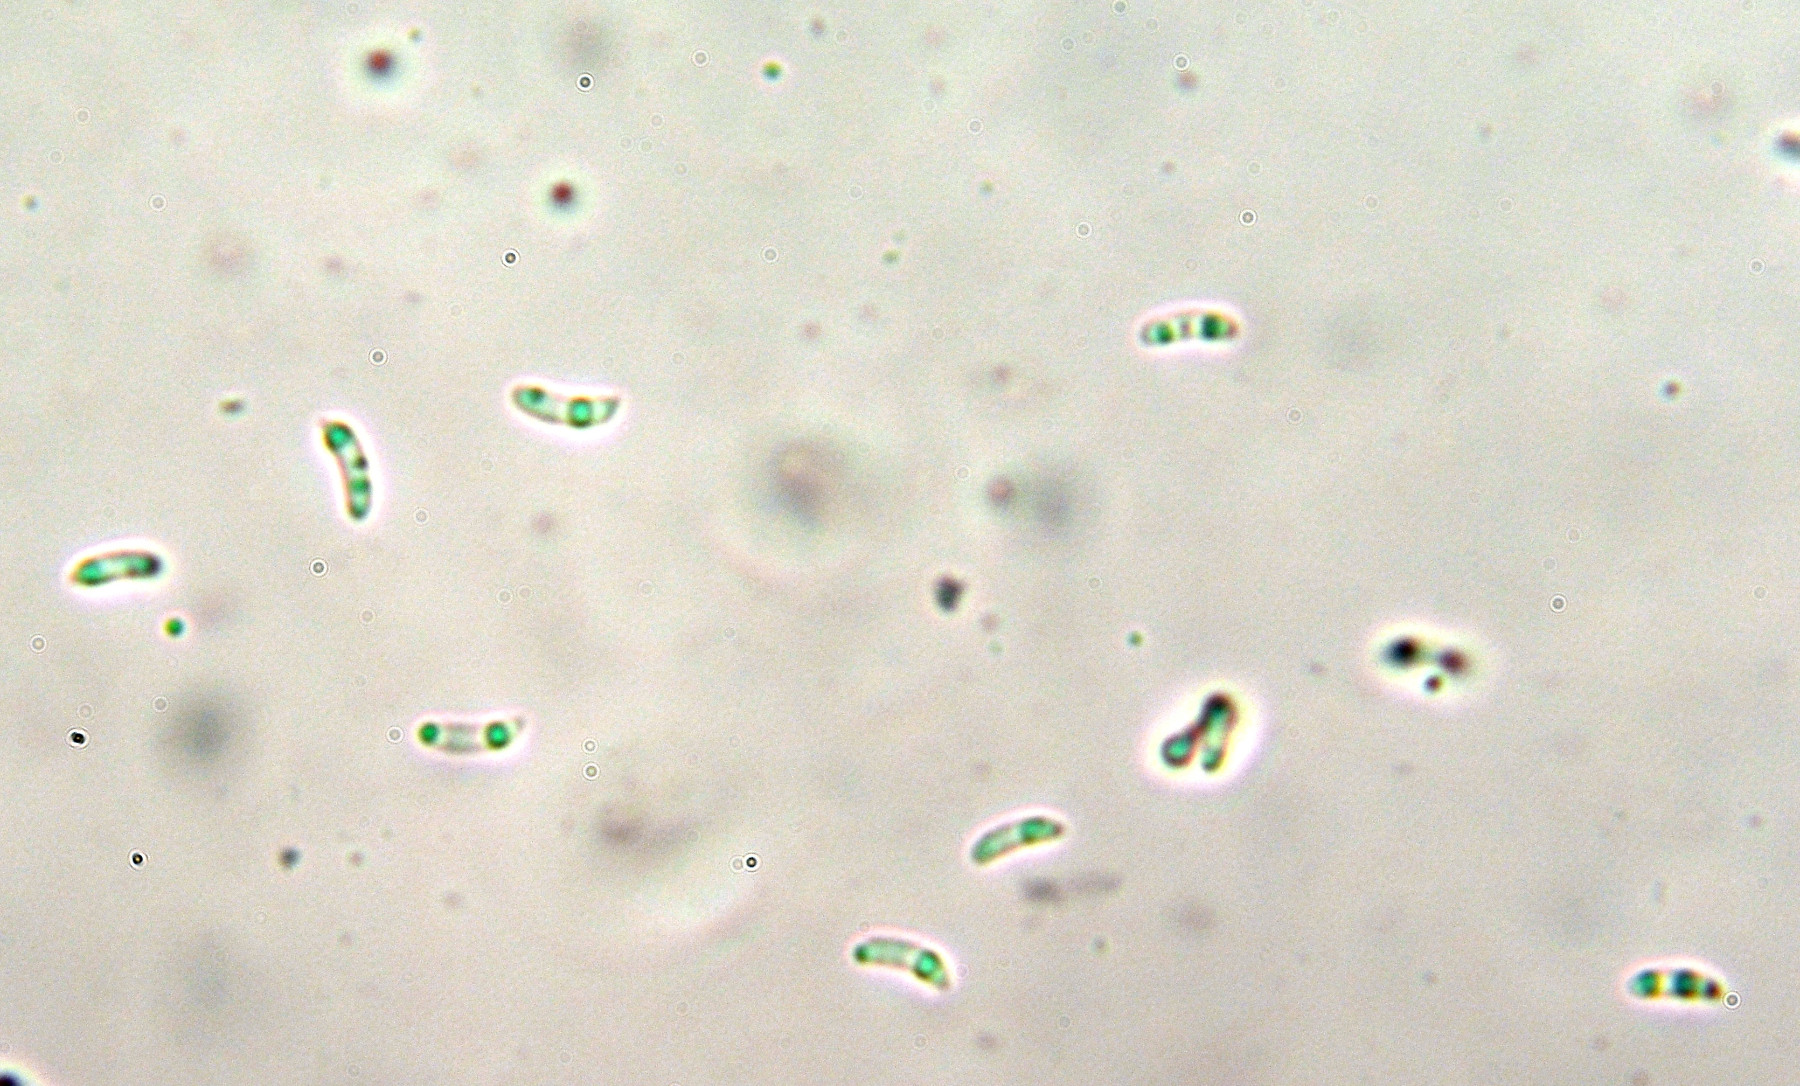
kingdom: Fungi
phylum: Basidiomycota
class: Agaricomycetes
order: Polyporales
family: Dacryobolaceae
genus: Dacryobolus
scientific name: Dacryobolus karstenii
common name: glat vulkanskorpe
